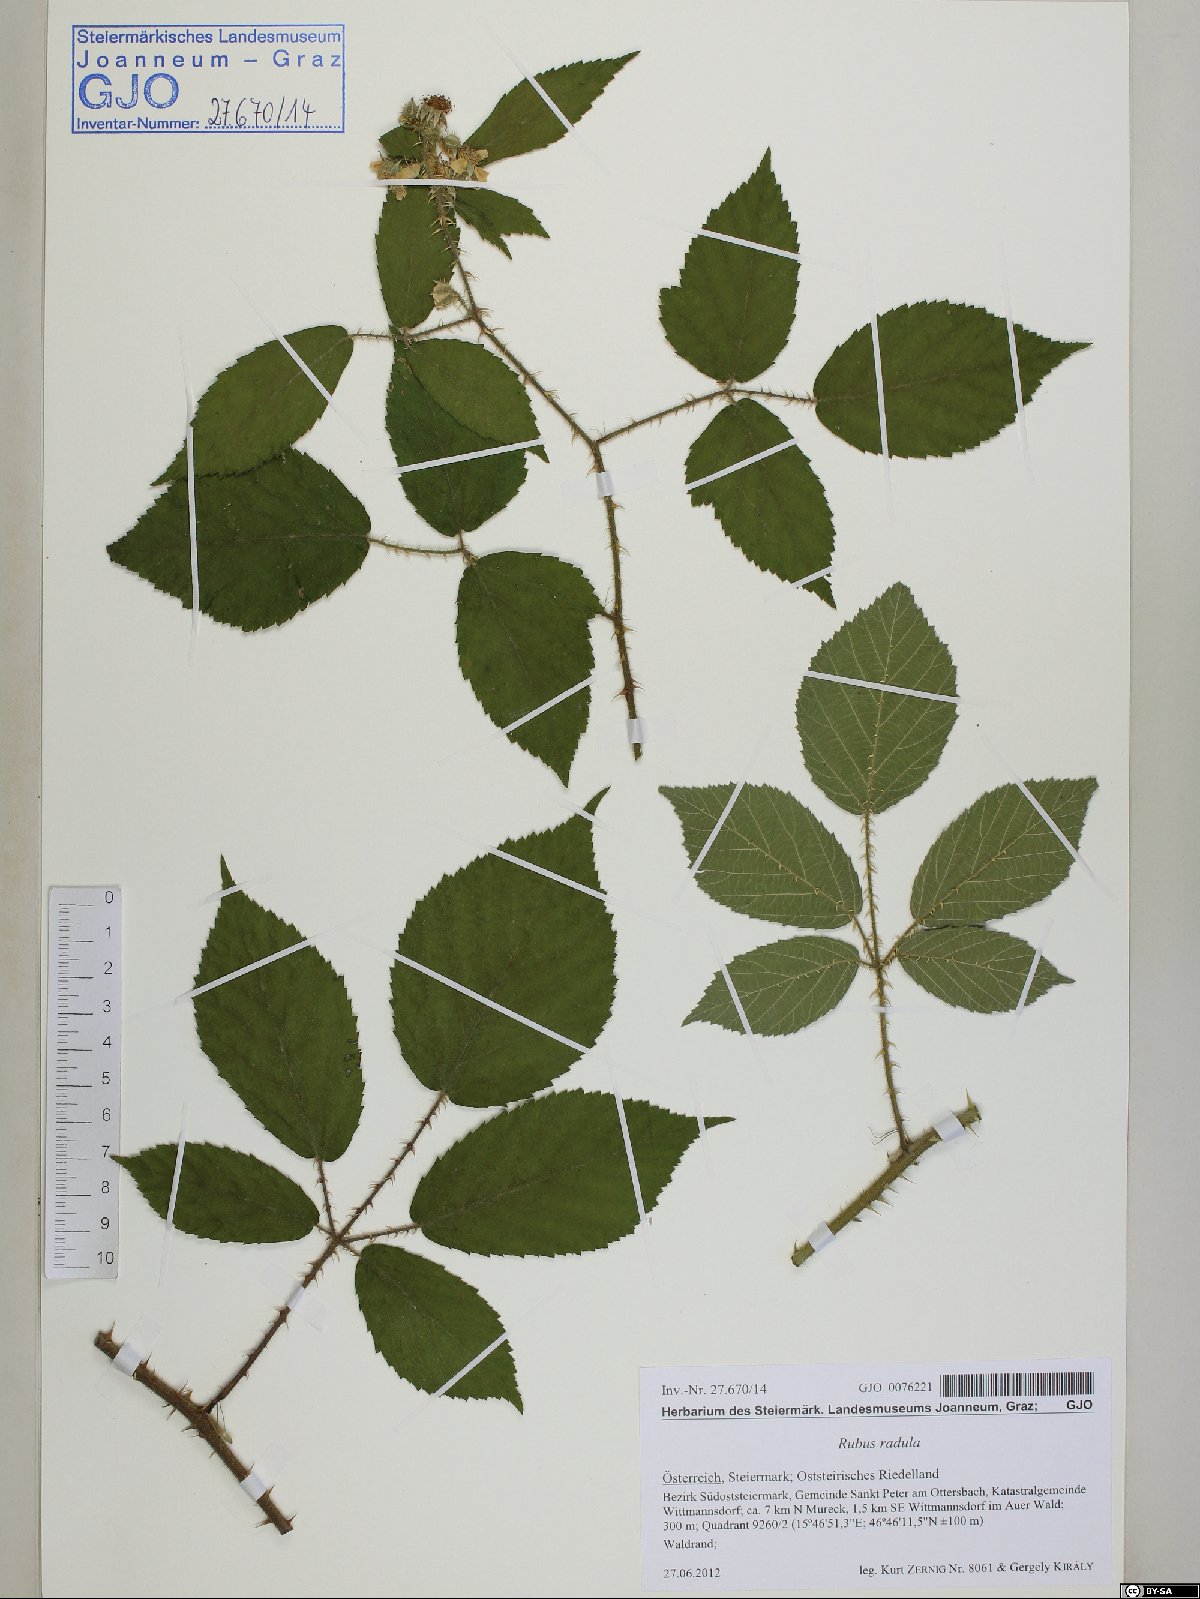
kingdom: Plantae
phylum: Tracheophyta
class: Magnoliopsida
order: Rosales
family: Rosaceae
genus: Rubus
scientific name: Rubus radula
